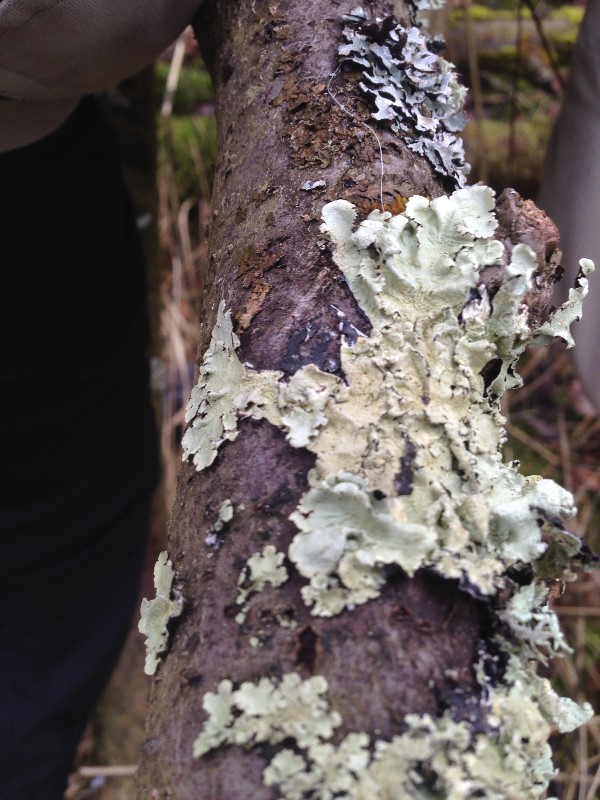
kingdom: Fungi
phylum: Ascomycota
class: Lecanoromycetes
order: Lecanorales
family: Parmeliaceae
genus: Flavoparmelia
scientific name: Flavoparmelia caperata
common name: gulgrøn skållav
